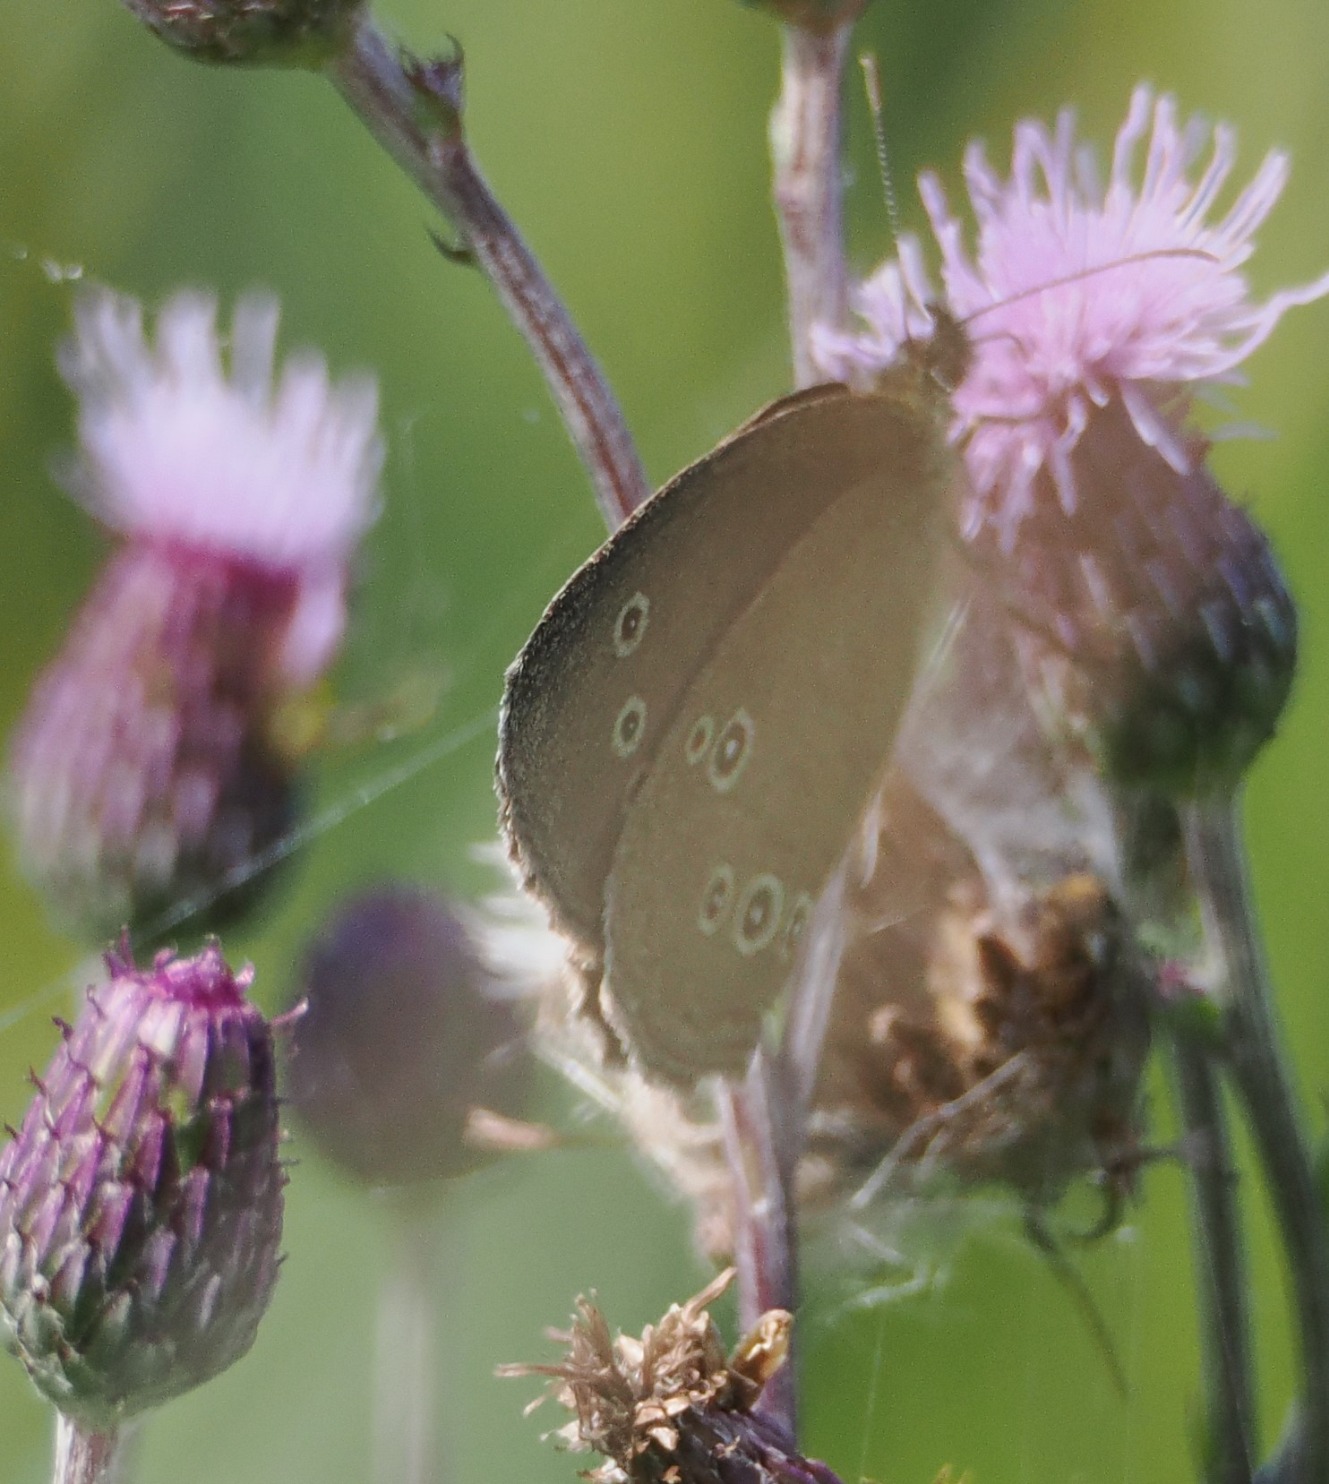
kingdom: Animalia
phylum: Arthropoda
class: Insecta
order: Lepidoptera
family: Nymphalidae
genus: Aphantopus
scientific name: Aphantopus hyperantus
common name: Engrandøje
